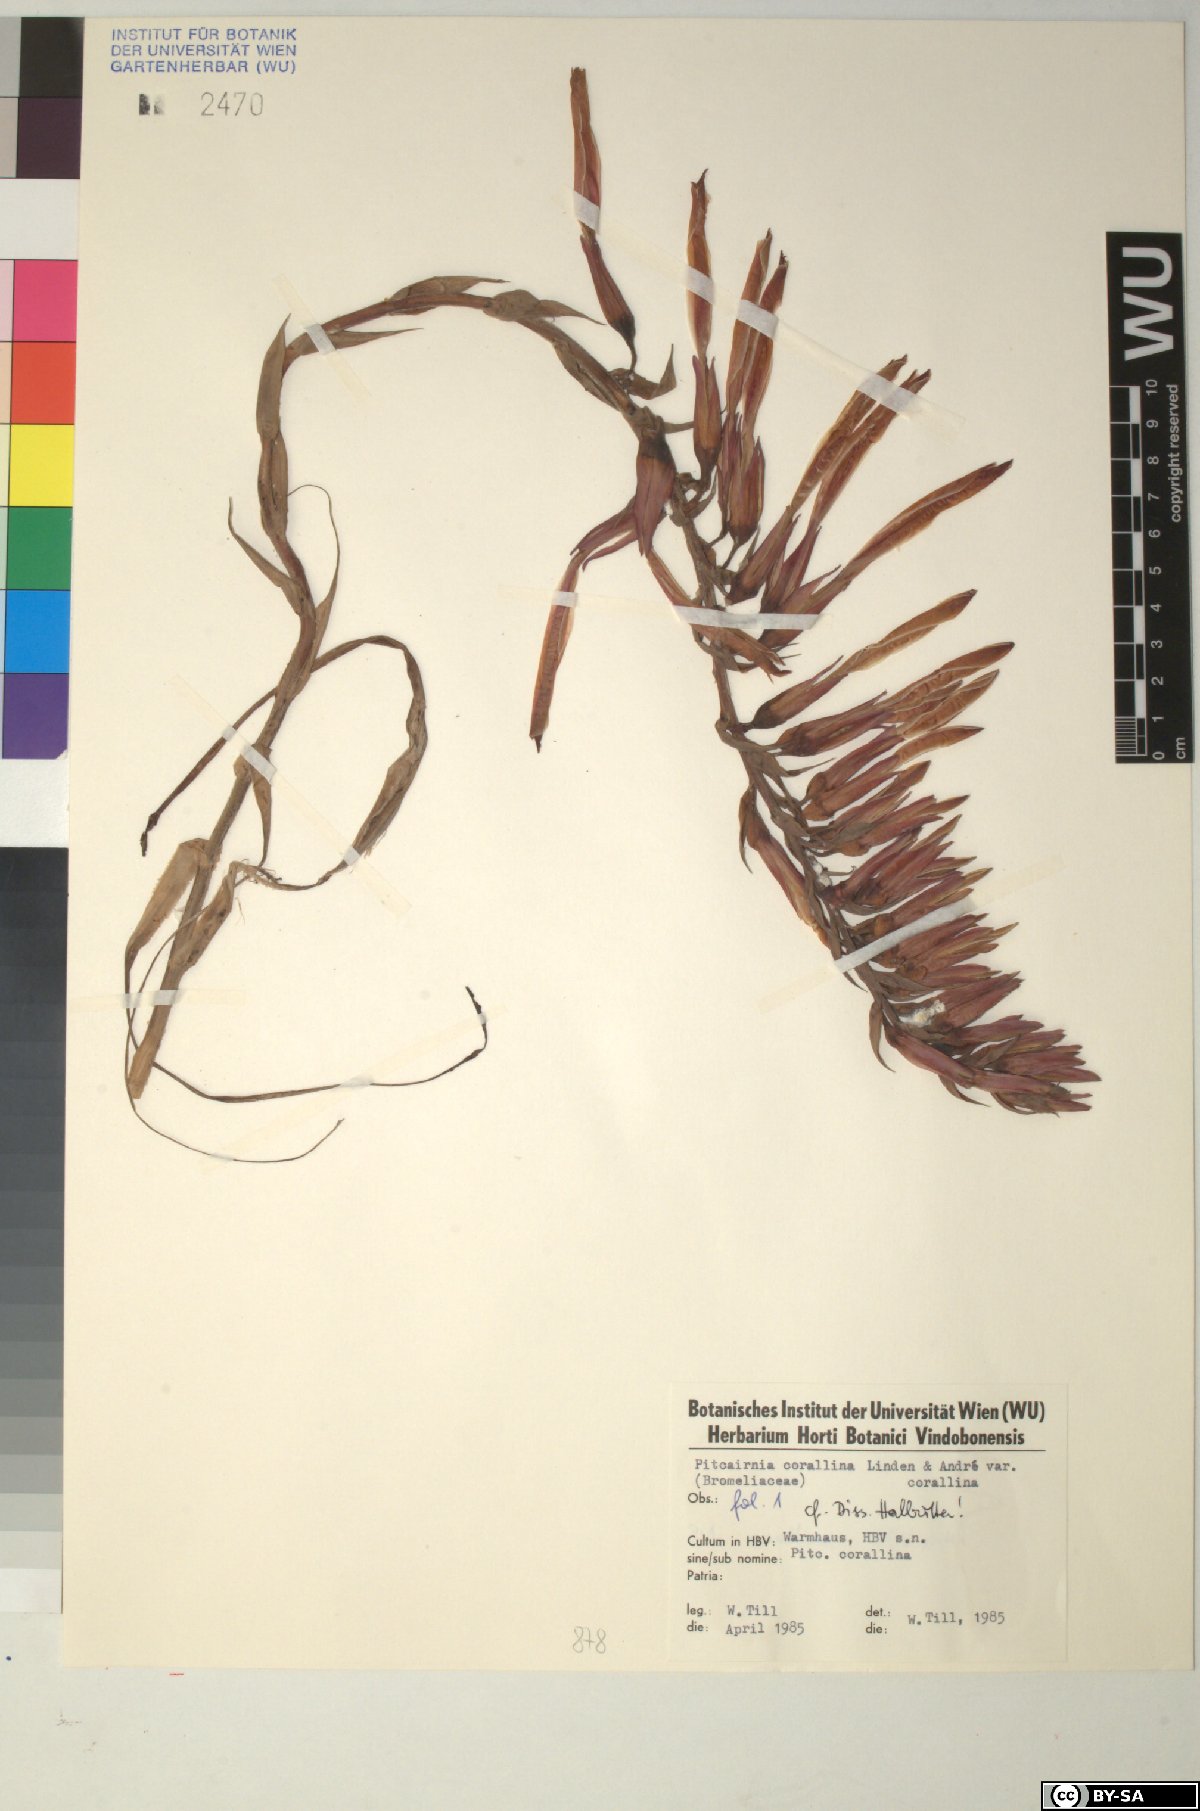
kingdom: Plantae
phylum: Tracheophyta
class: Liliopsida
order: Poales
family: Bromeliaceae
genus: Pitcairnia
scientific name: Pitcairnia
